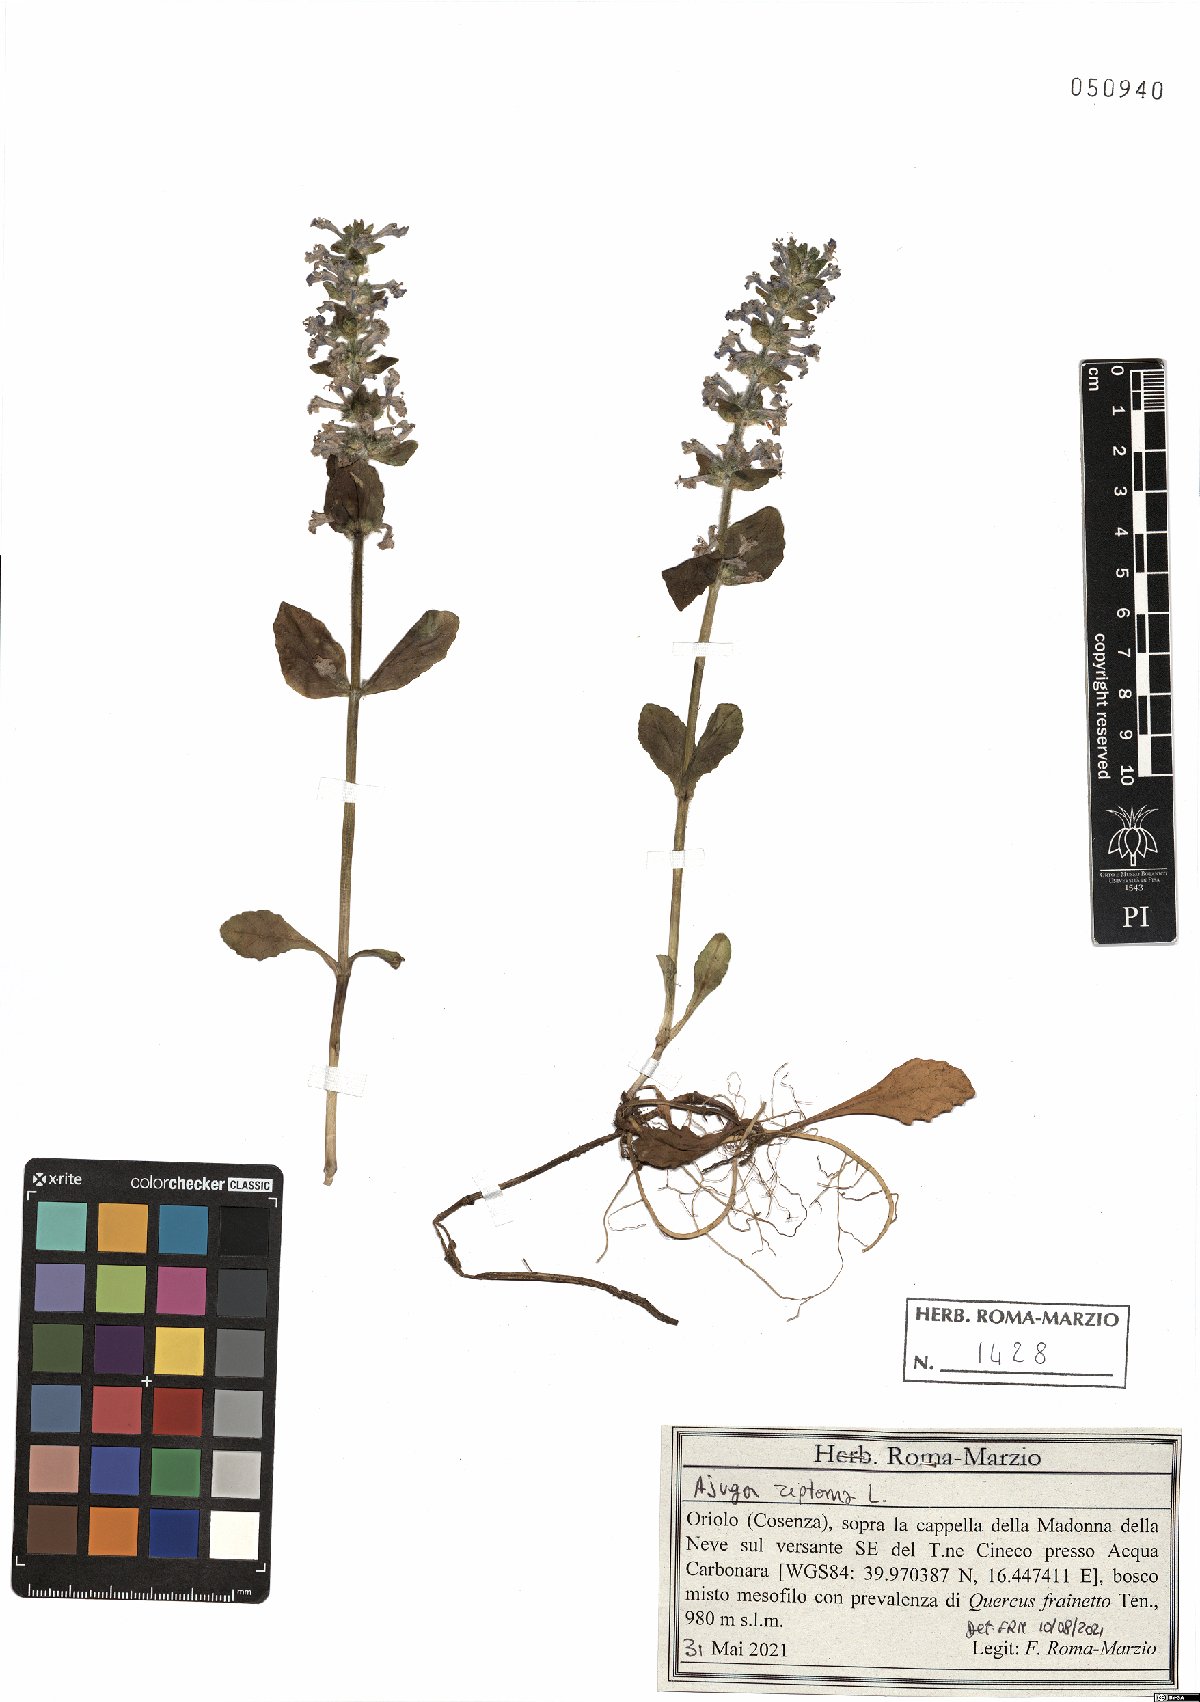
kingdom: Plantae
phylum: Tracheophyta
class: Magnoliopsida
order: Lamiales
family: Lamiaceae
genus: Ajuga
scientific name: Ajuga reptans
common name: Bugle
